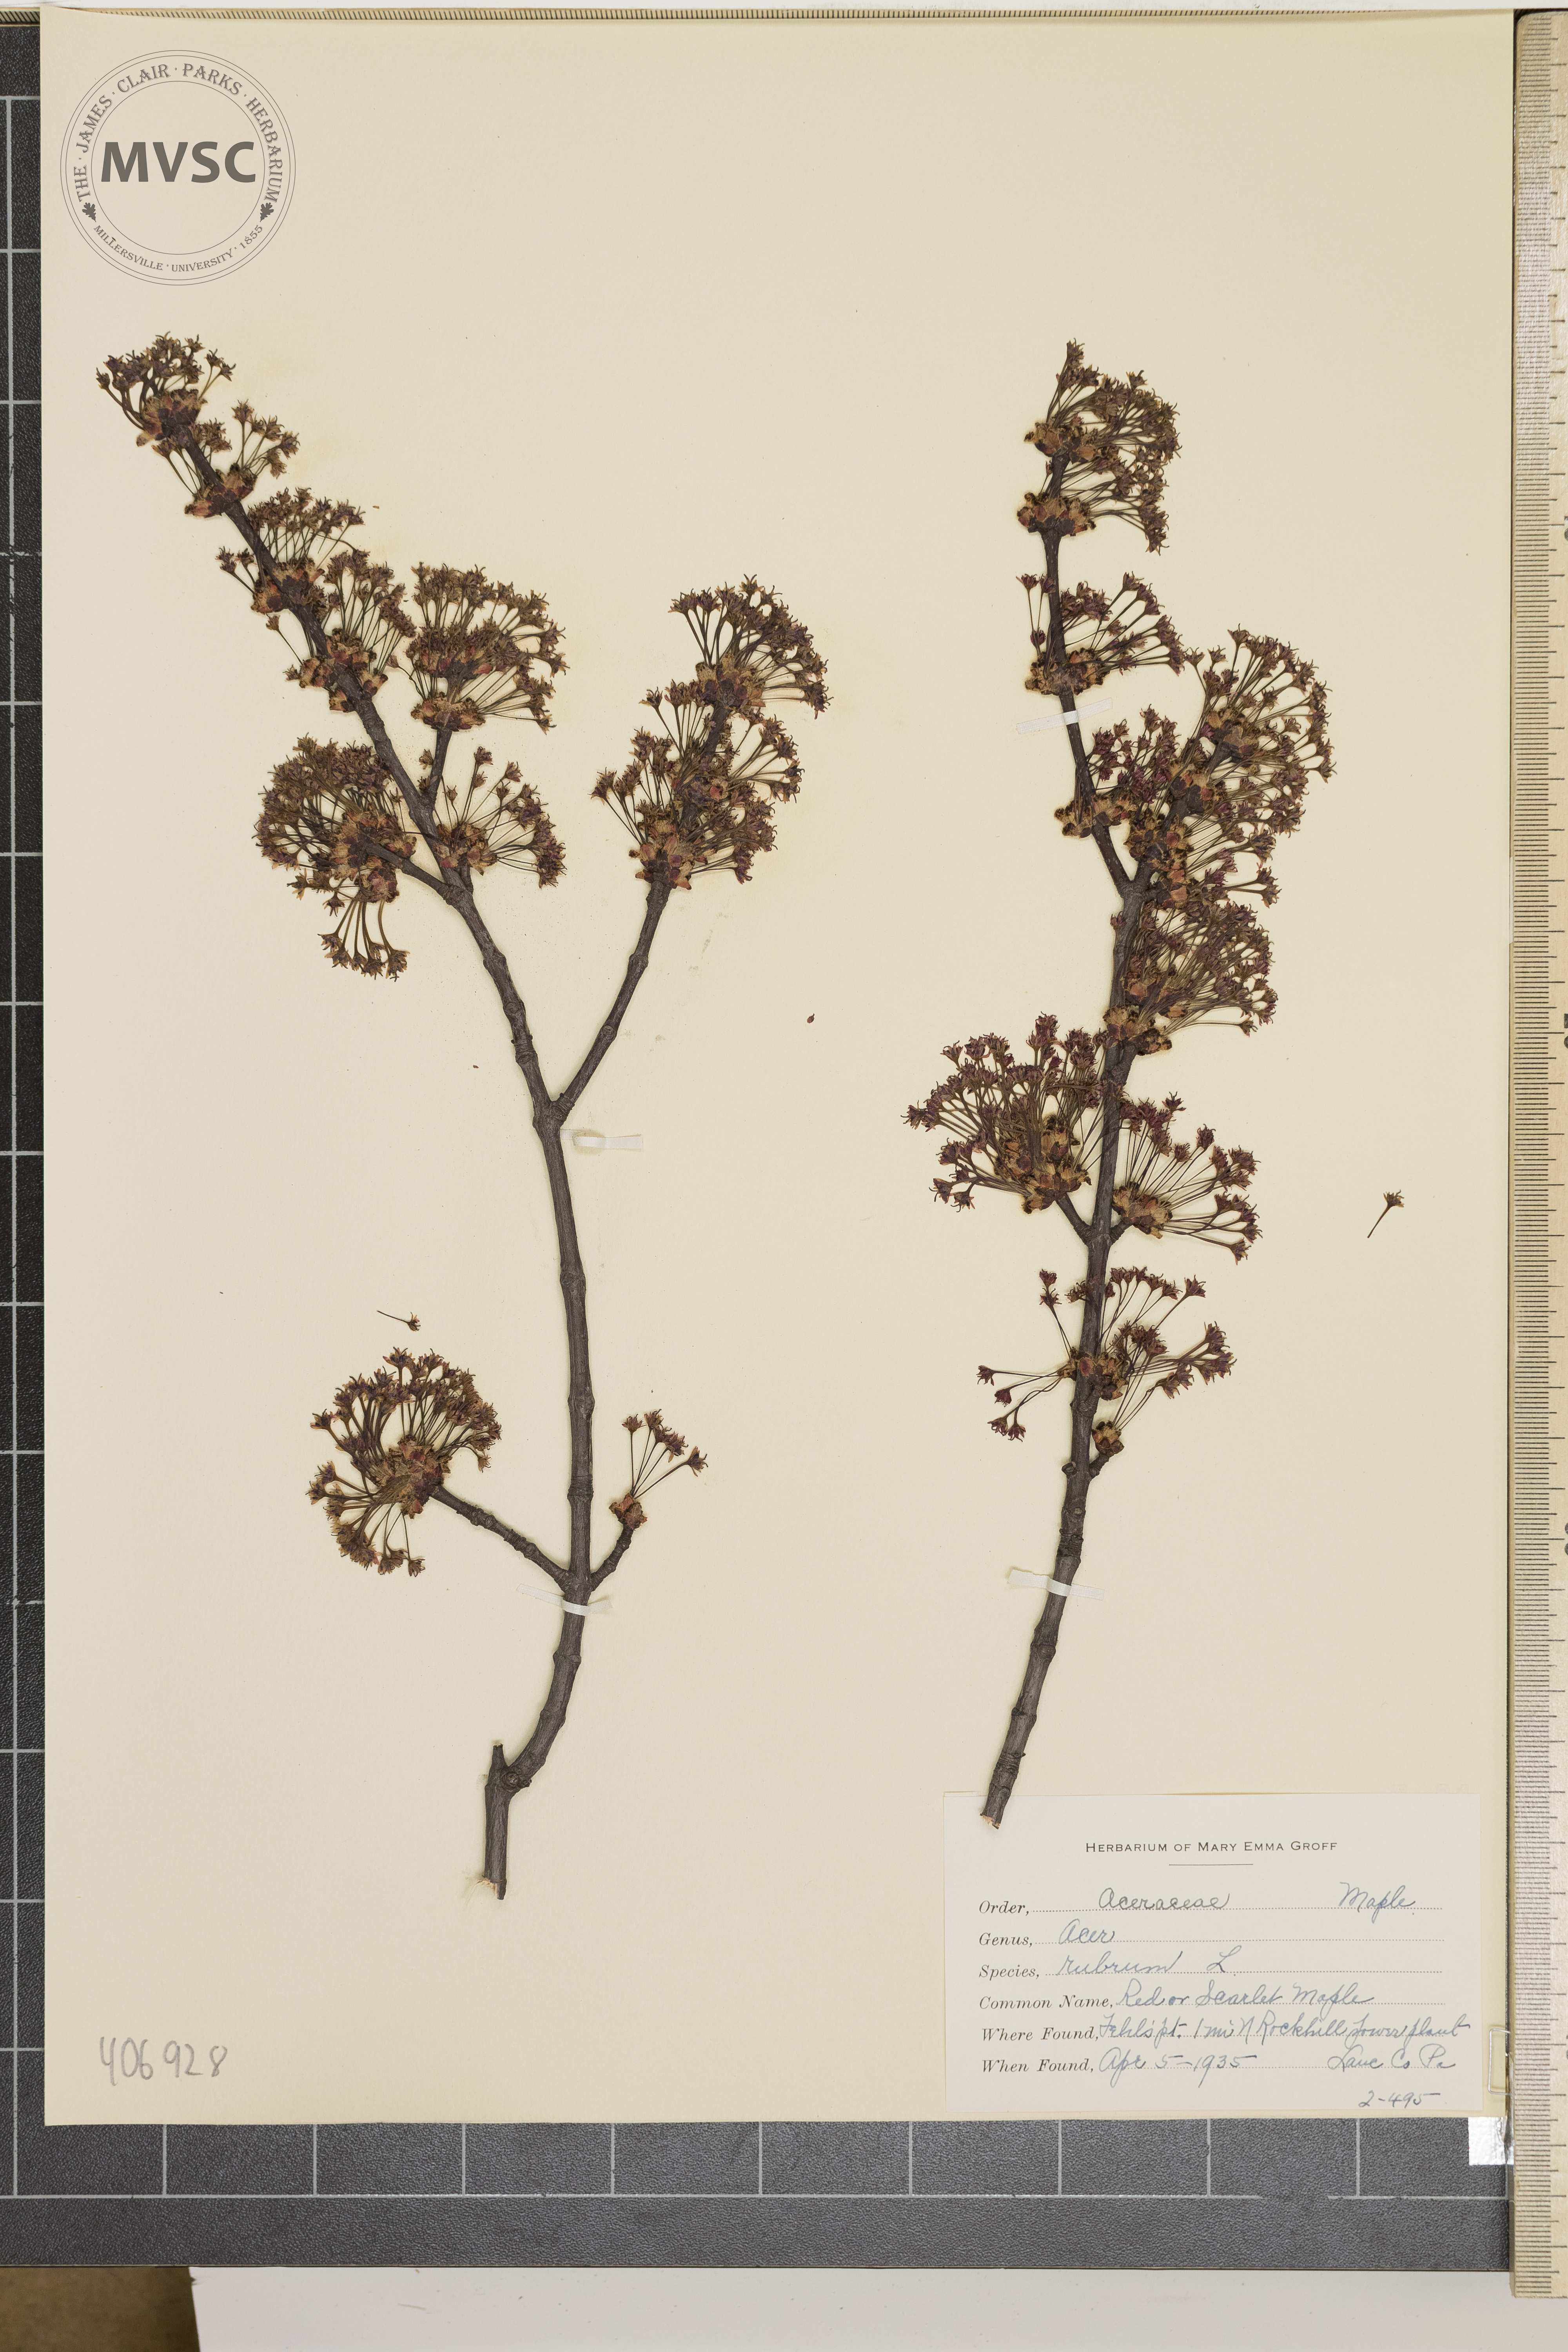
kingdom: Plantae
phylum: Tracheophyta
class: Magnoliopsida
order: Sapindales
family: Sapindaceae
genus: Acer
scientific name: Acer rubrum
